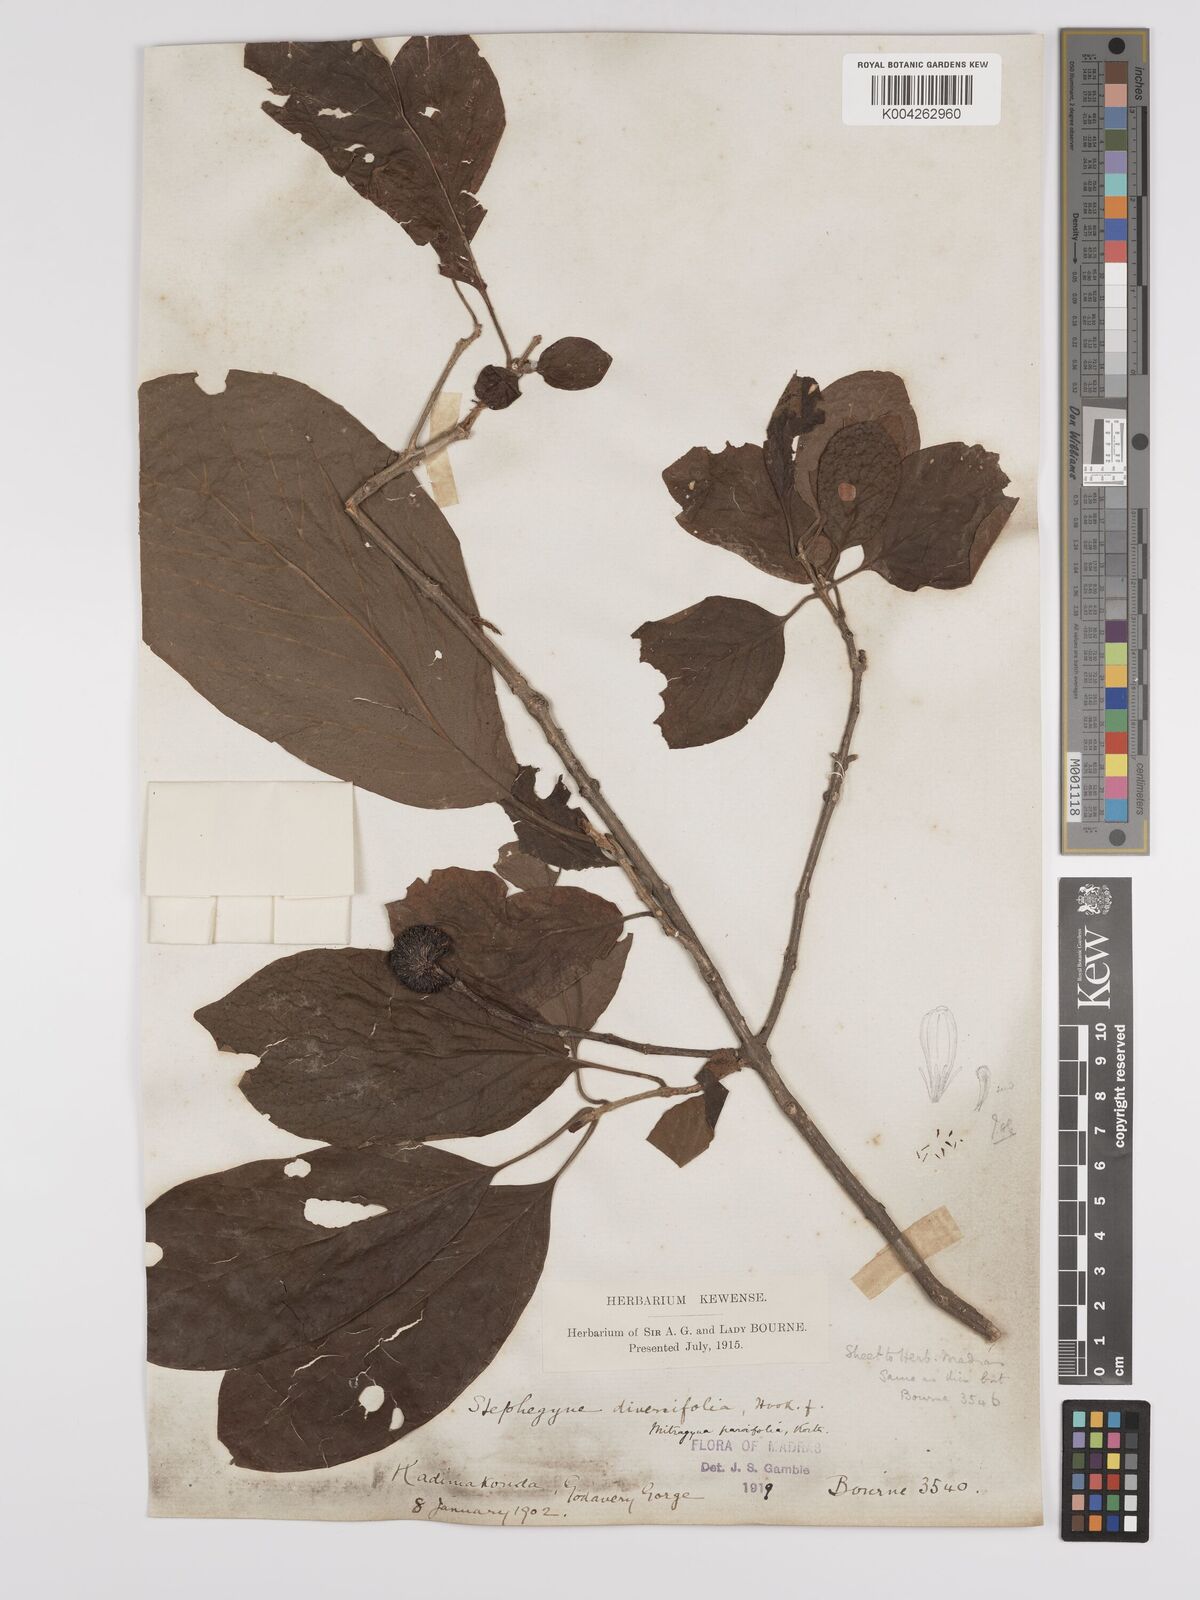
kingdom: Plantae
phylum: Tracheophyta
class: Magnoliopsida
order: Gentianales
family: Rubiaceae
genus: Mitragyna
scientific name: Mitragyna parvifolia
